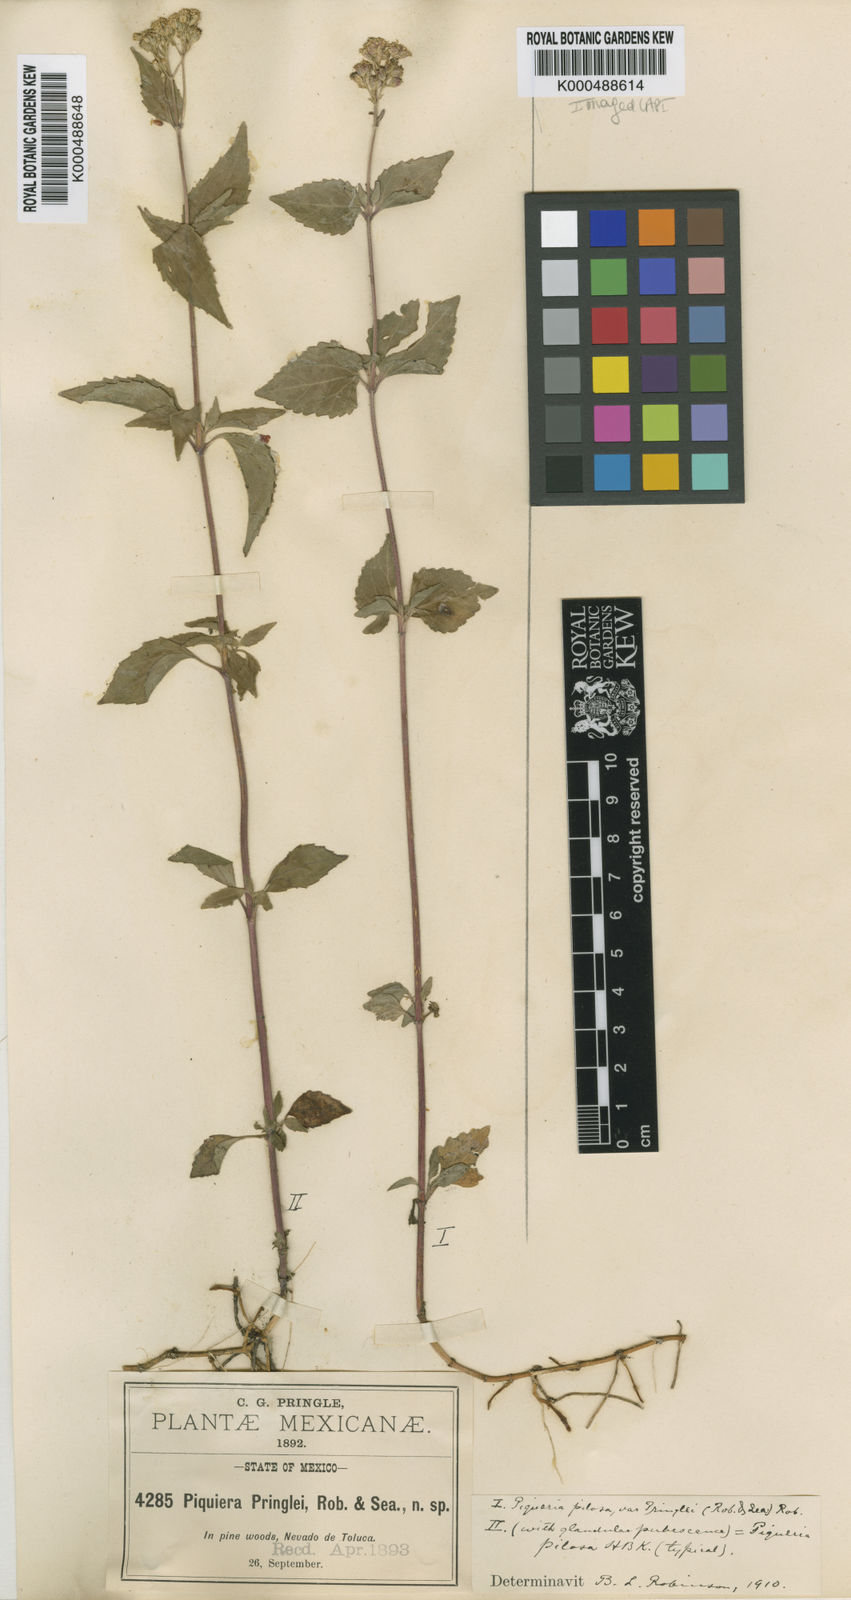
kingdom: Plantae
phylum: Tracheophyta
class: Magnoliopsida
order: Asterales
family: Asteraceae
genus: Piqueria
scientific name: Piqueria pilosa
